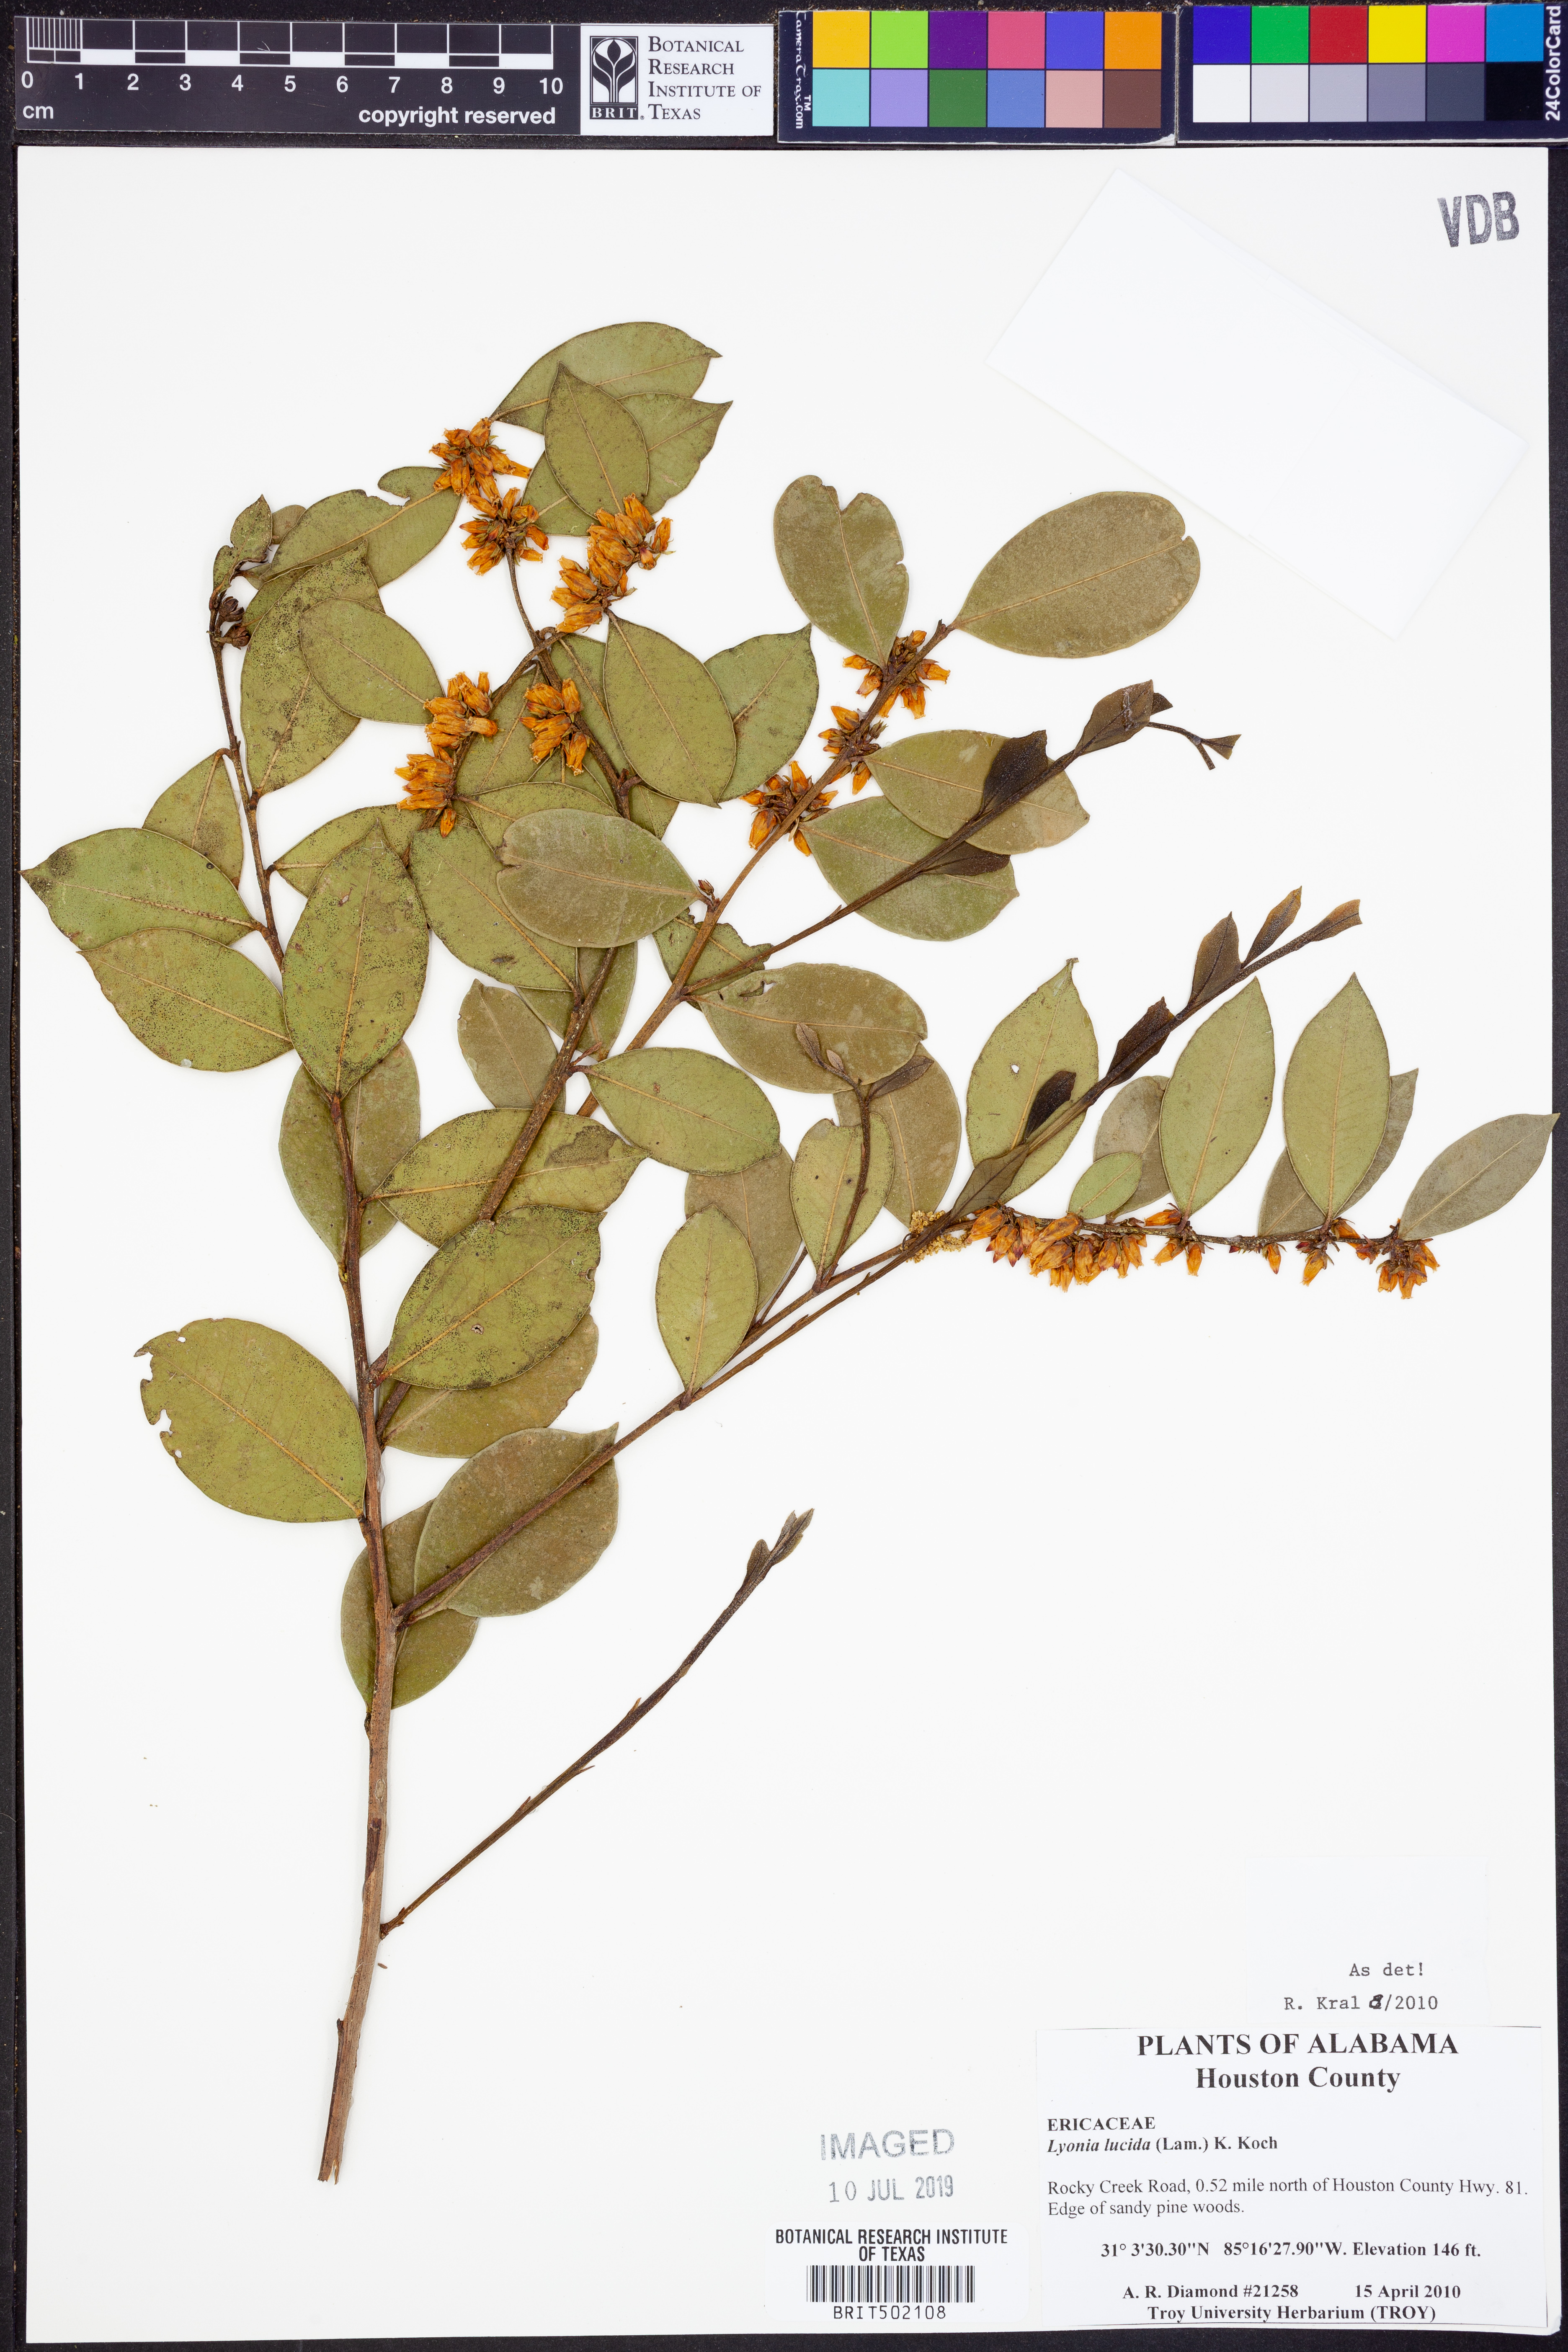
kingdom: Plantae
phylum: Tracheophyta
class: Magnoliopsida
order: Ericales
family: Ericaceae
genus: Lyonia
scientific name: Lyonia lucida
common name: Fetterbush
